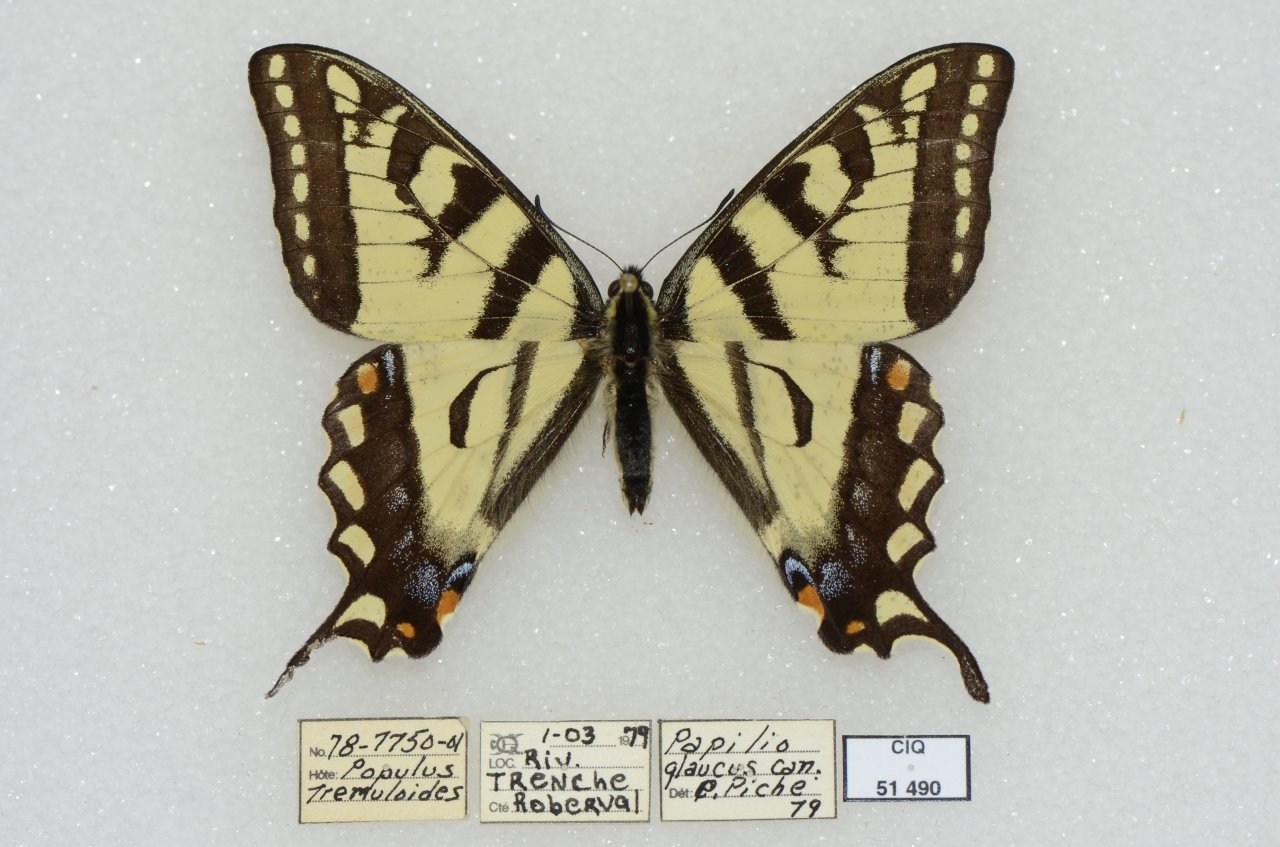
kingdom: Animalia
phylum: Arthropoda
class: Insecta
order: Lepidoptera
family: Papilionidae
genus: Pterourus
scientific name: Pterourus canadensis
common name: Canadian Tiger Swallowtail
